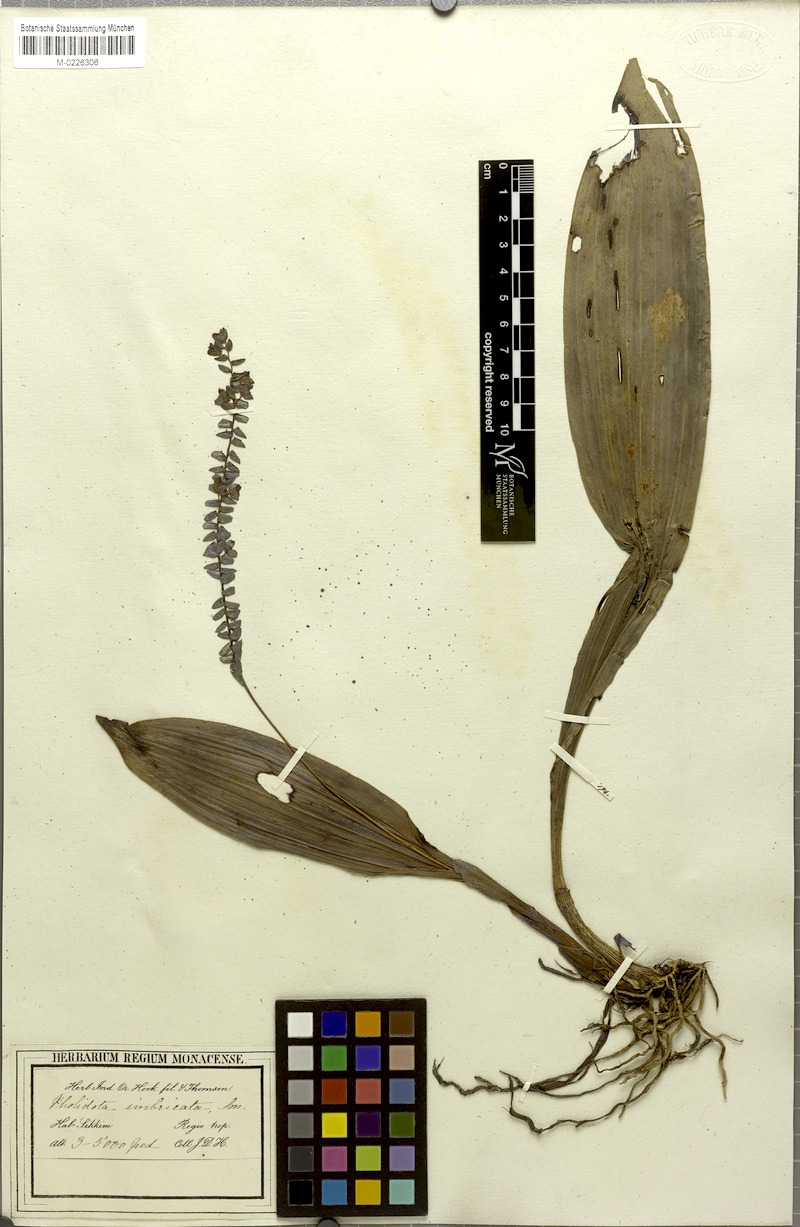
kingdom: Plantae
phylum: Tracheophyta
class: Liliopsida
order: Asparagales
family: Orchidaceae
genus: Pholidota
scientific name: Pholidota imbricata
